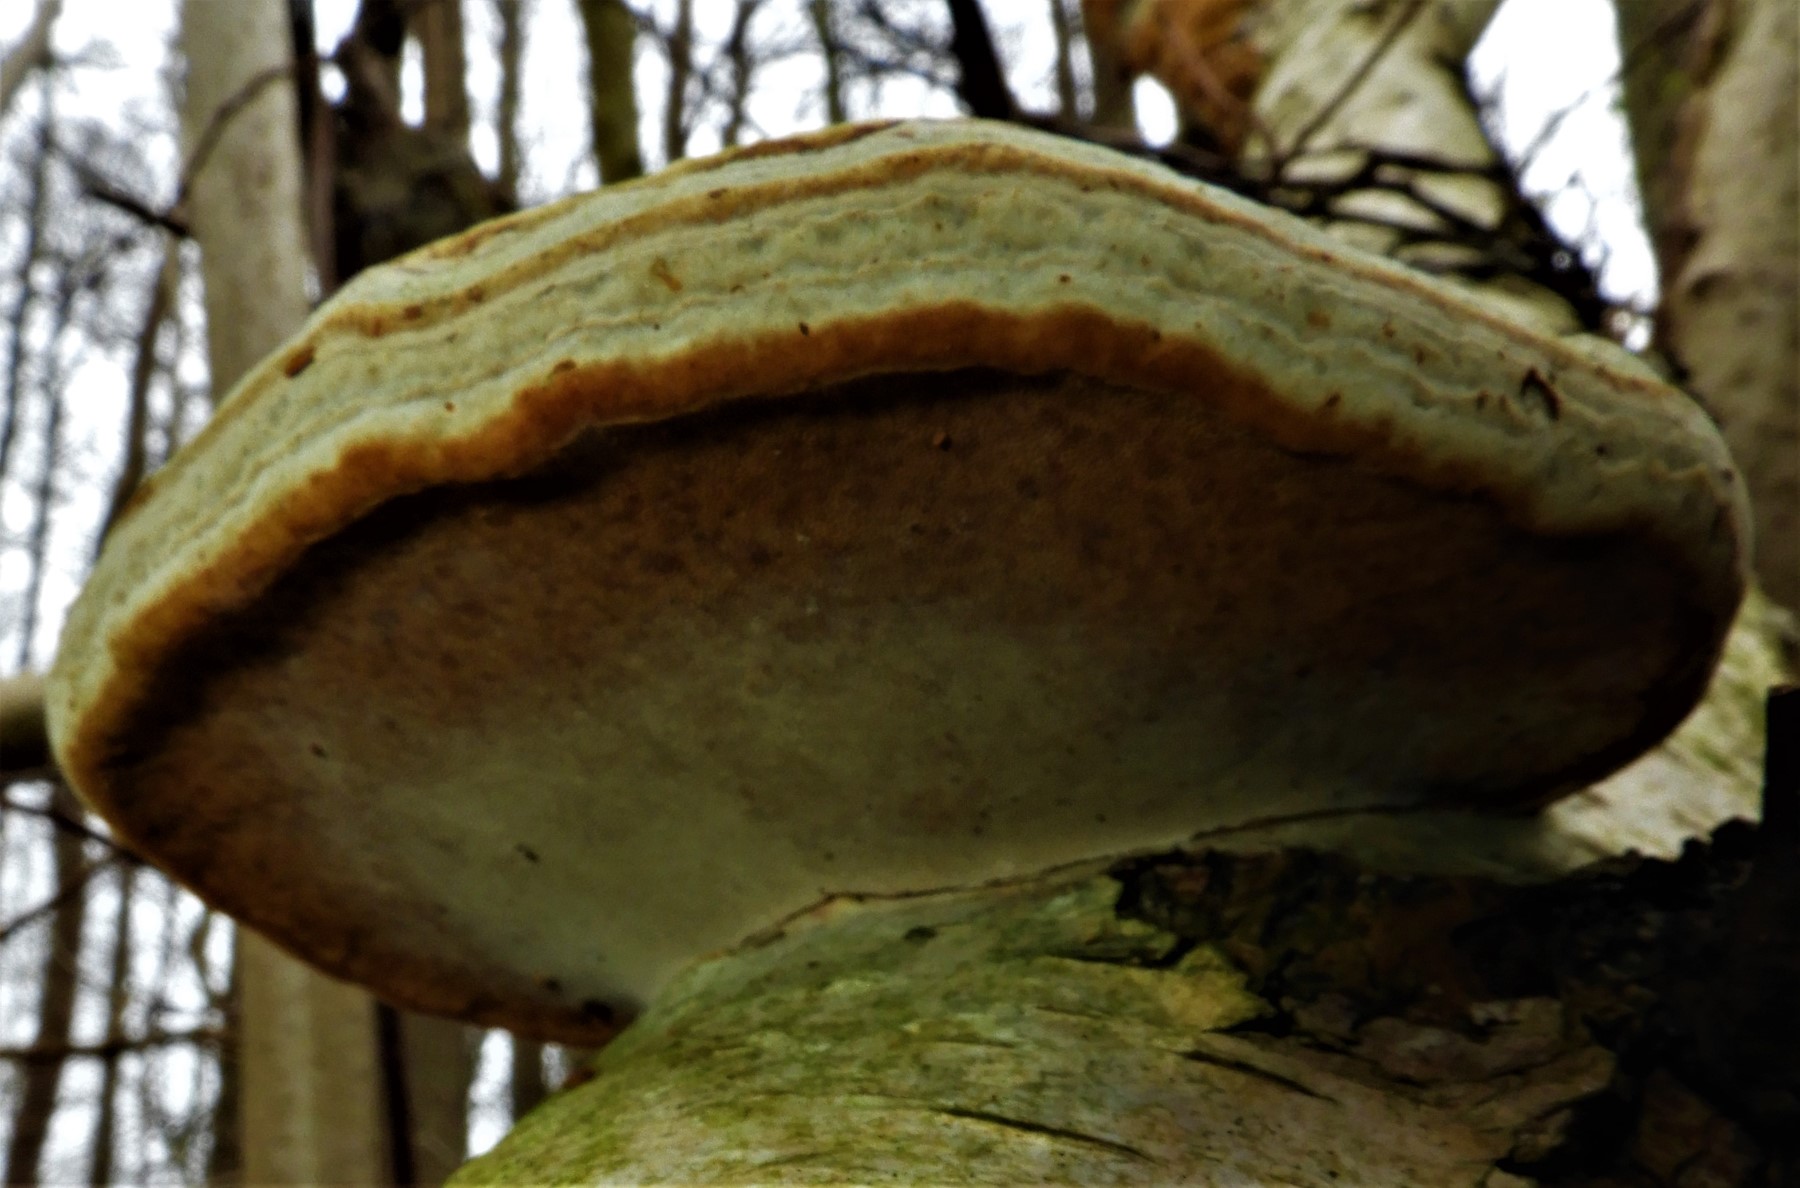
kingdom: Fungi
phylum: Basidiomycota
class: Agaricomycetes
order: Polyporales
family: Polyporaceae
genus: Fomes
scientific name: Fomes fomentarius
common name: tøndersvamp
